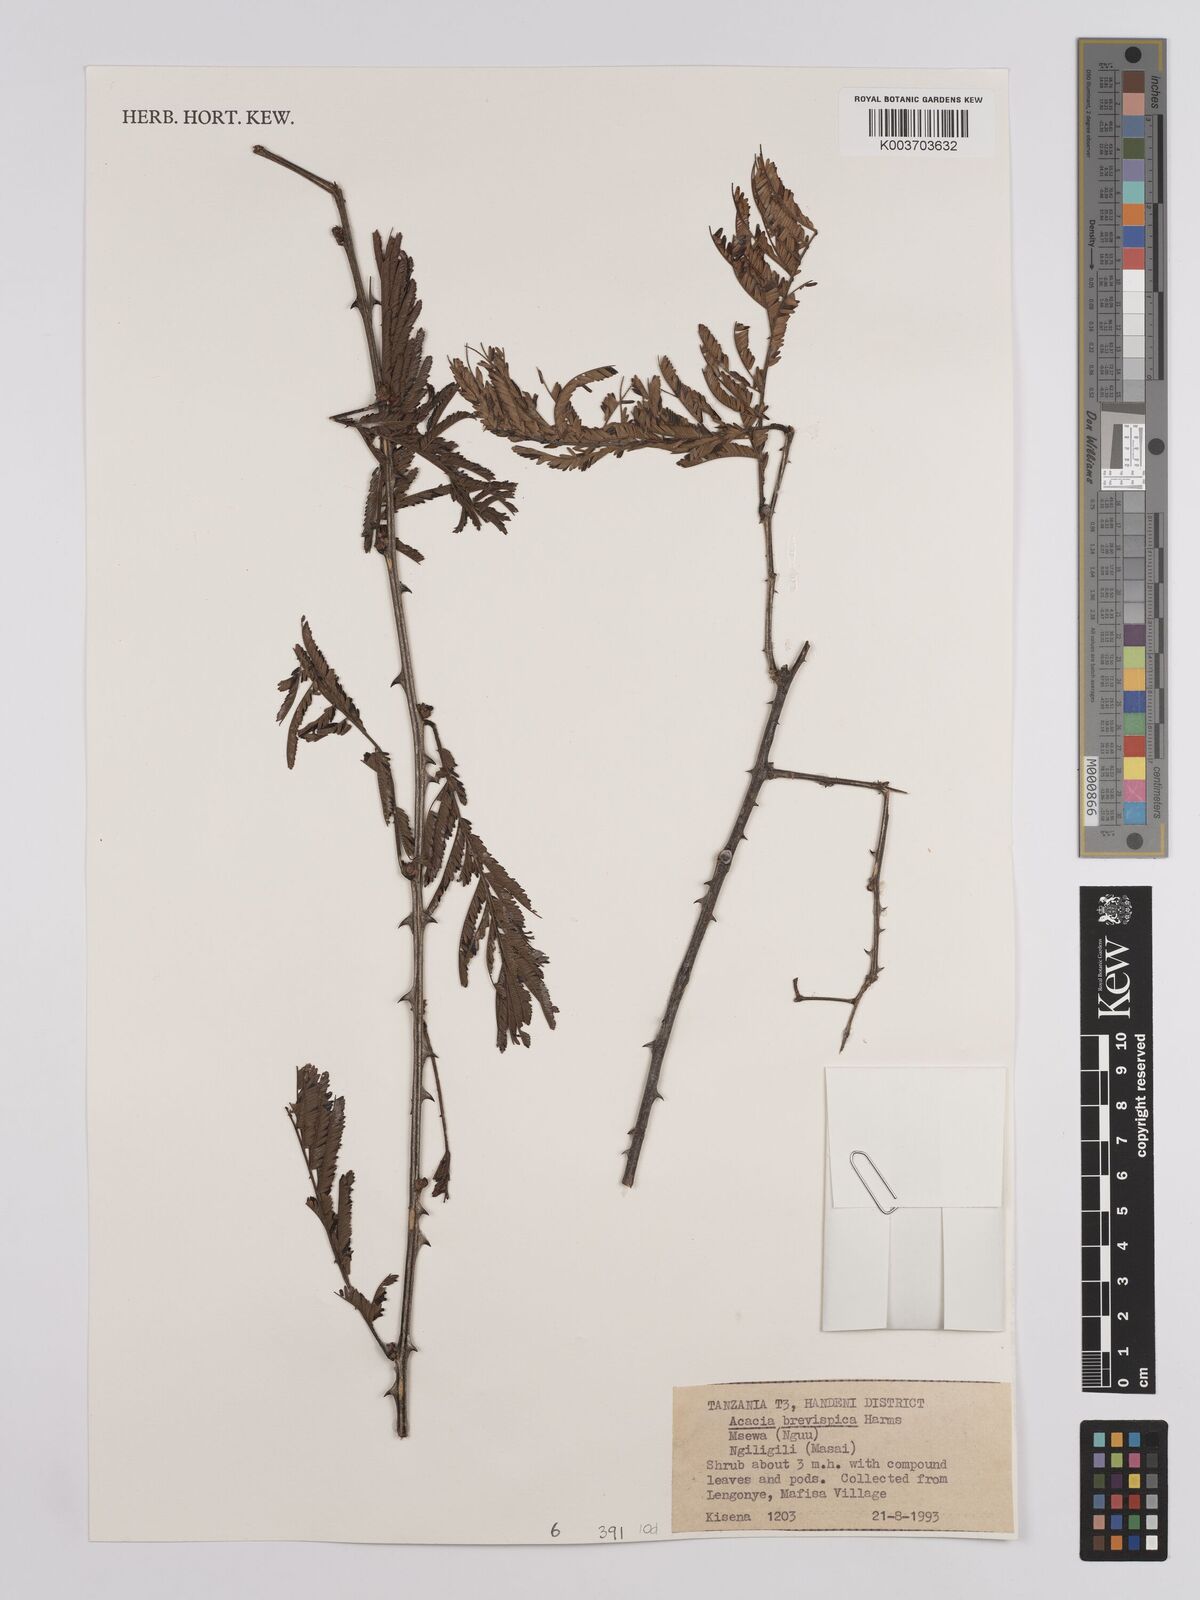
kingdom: Plantae
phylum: Tracheophyta
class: Magnoliopsida
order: Fabales
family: Fabaceae
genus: Senegalia
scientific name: Senegalia brevispica
